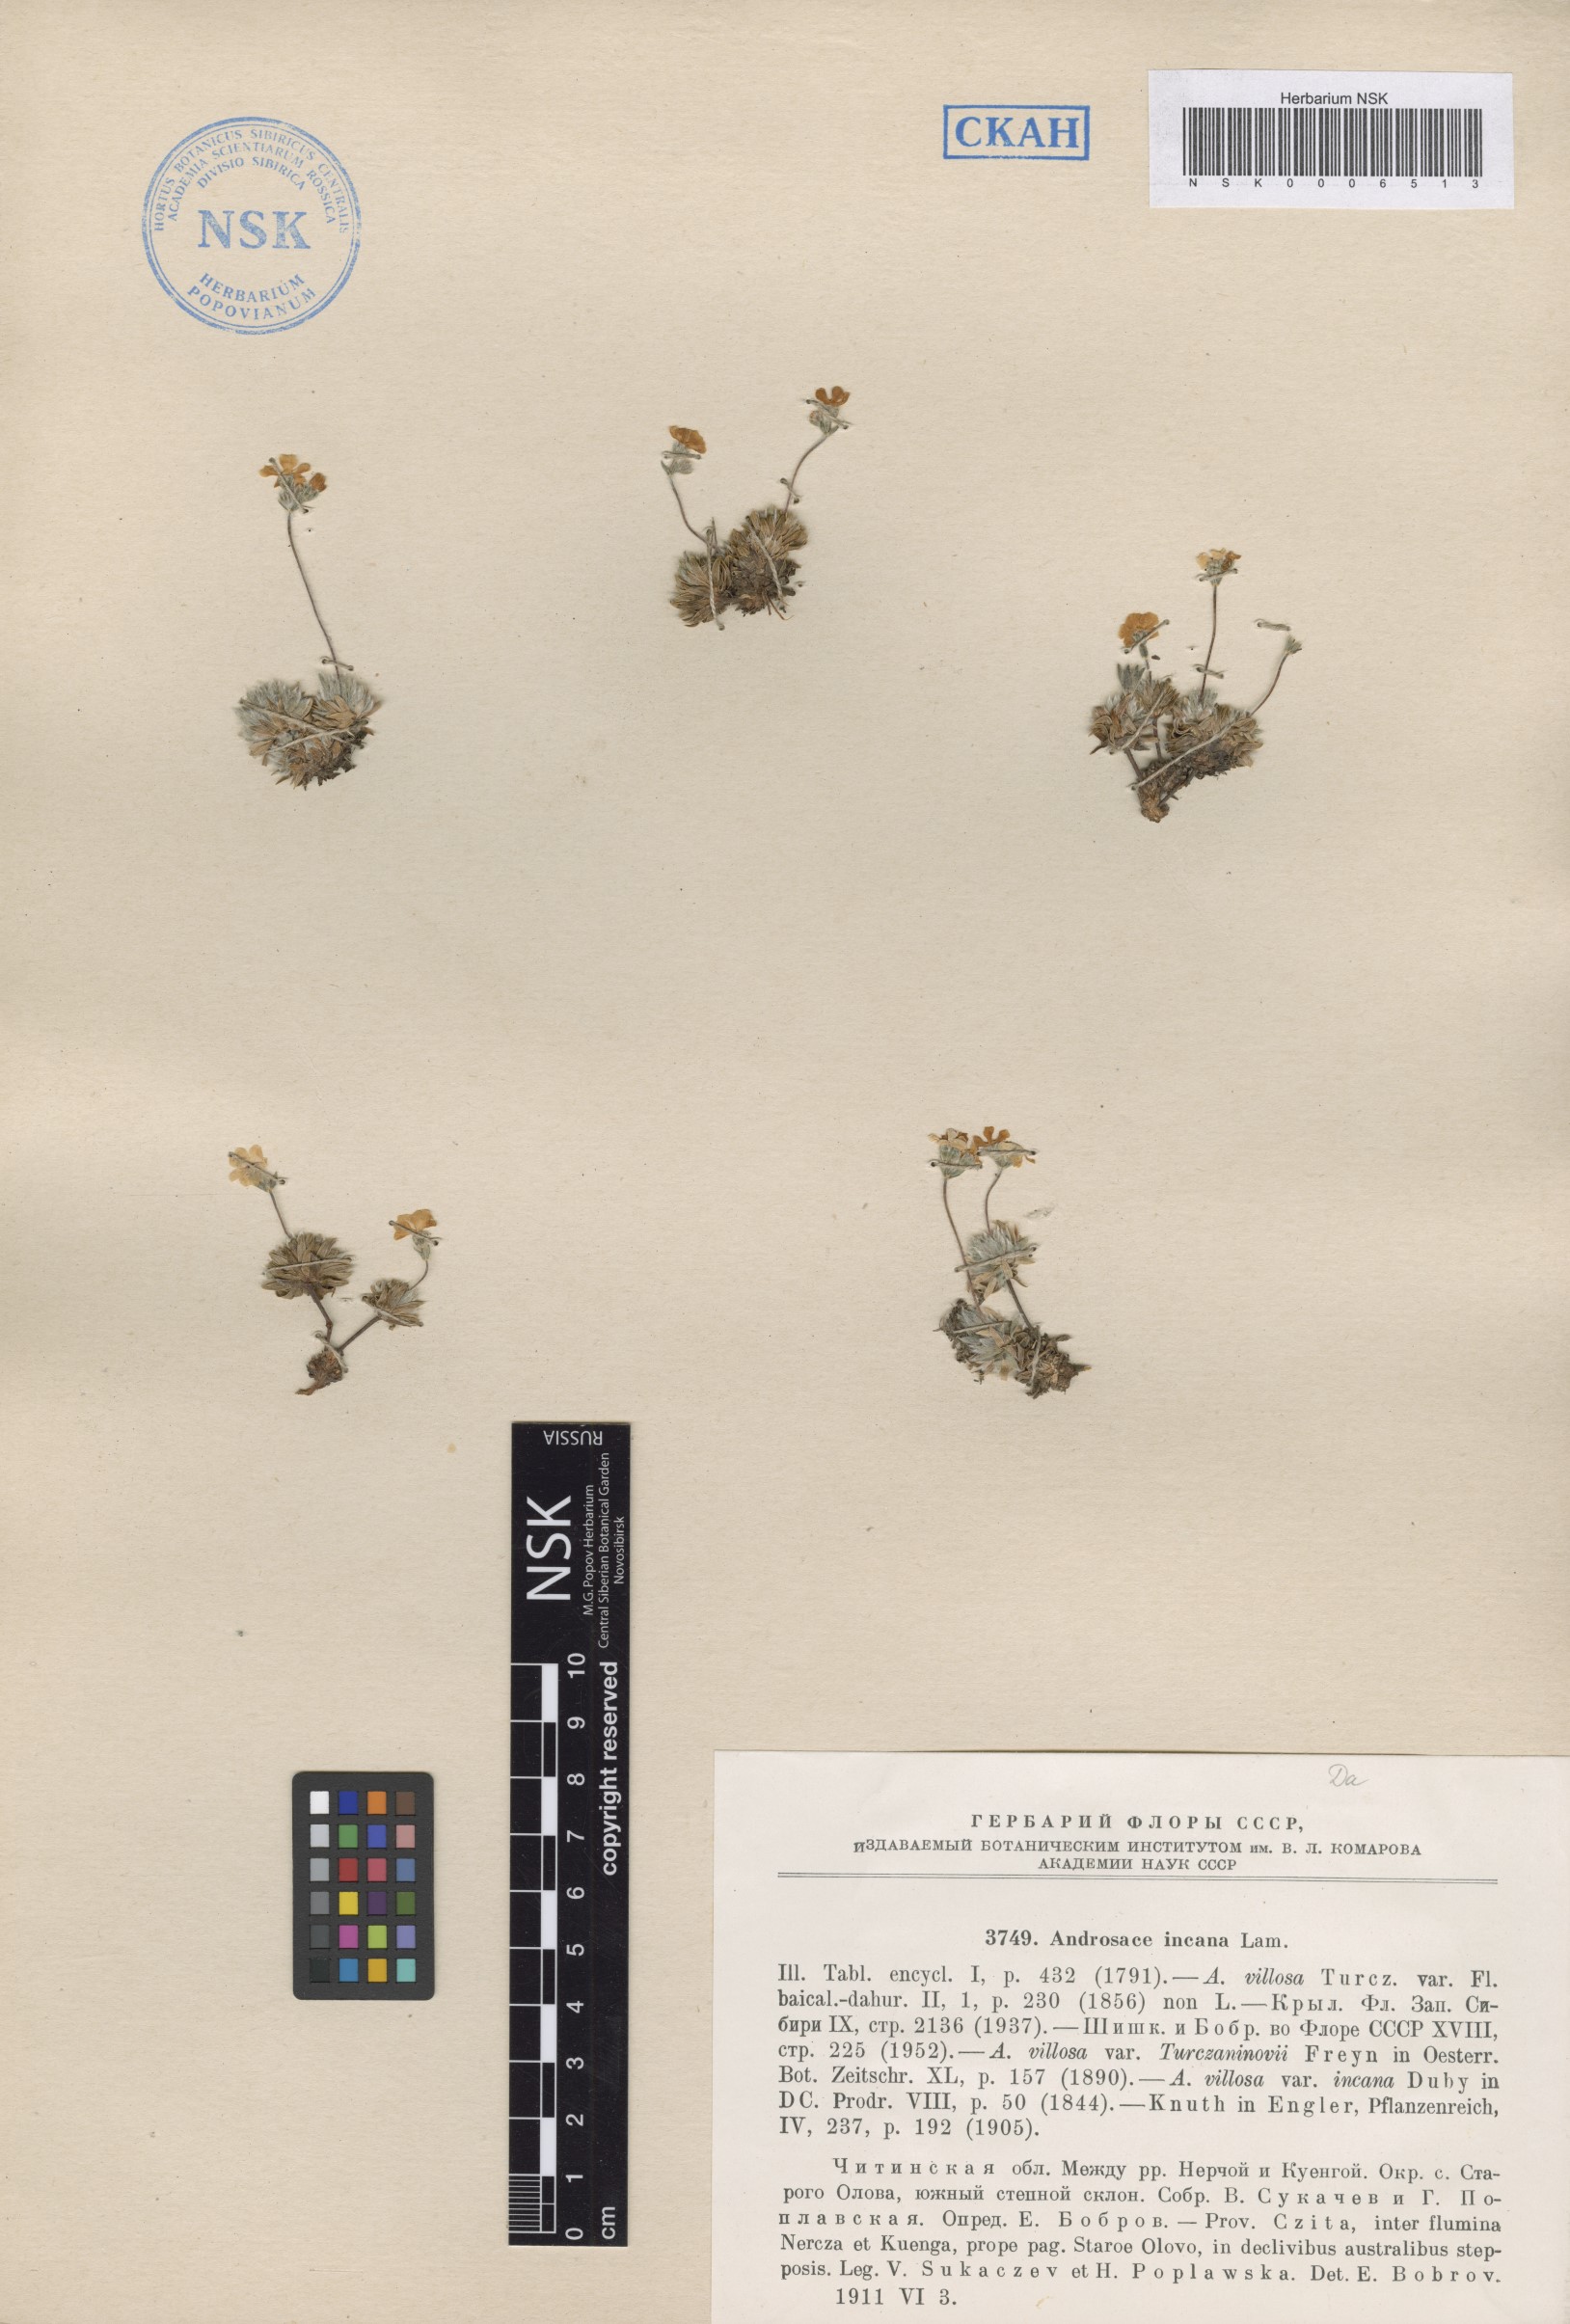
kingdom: Plantae
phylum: Tracheophyta
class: Magnoliopsida
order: Ericales
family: Primulaceae
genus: Androsace
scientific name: Androsace incana
